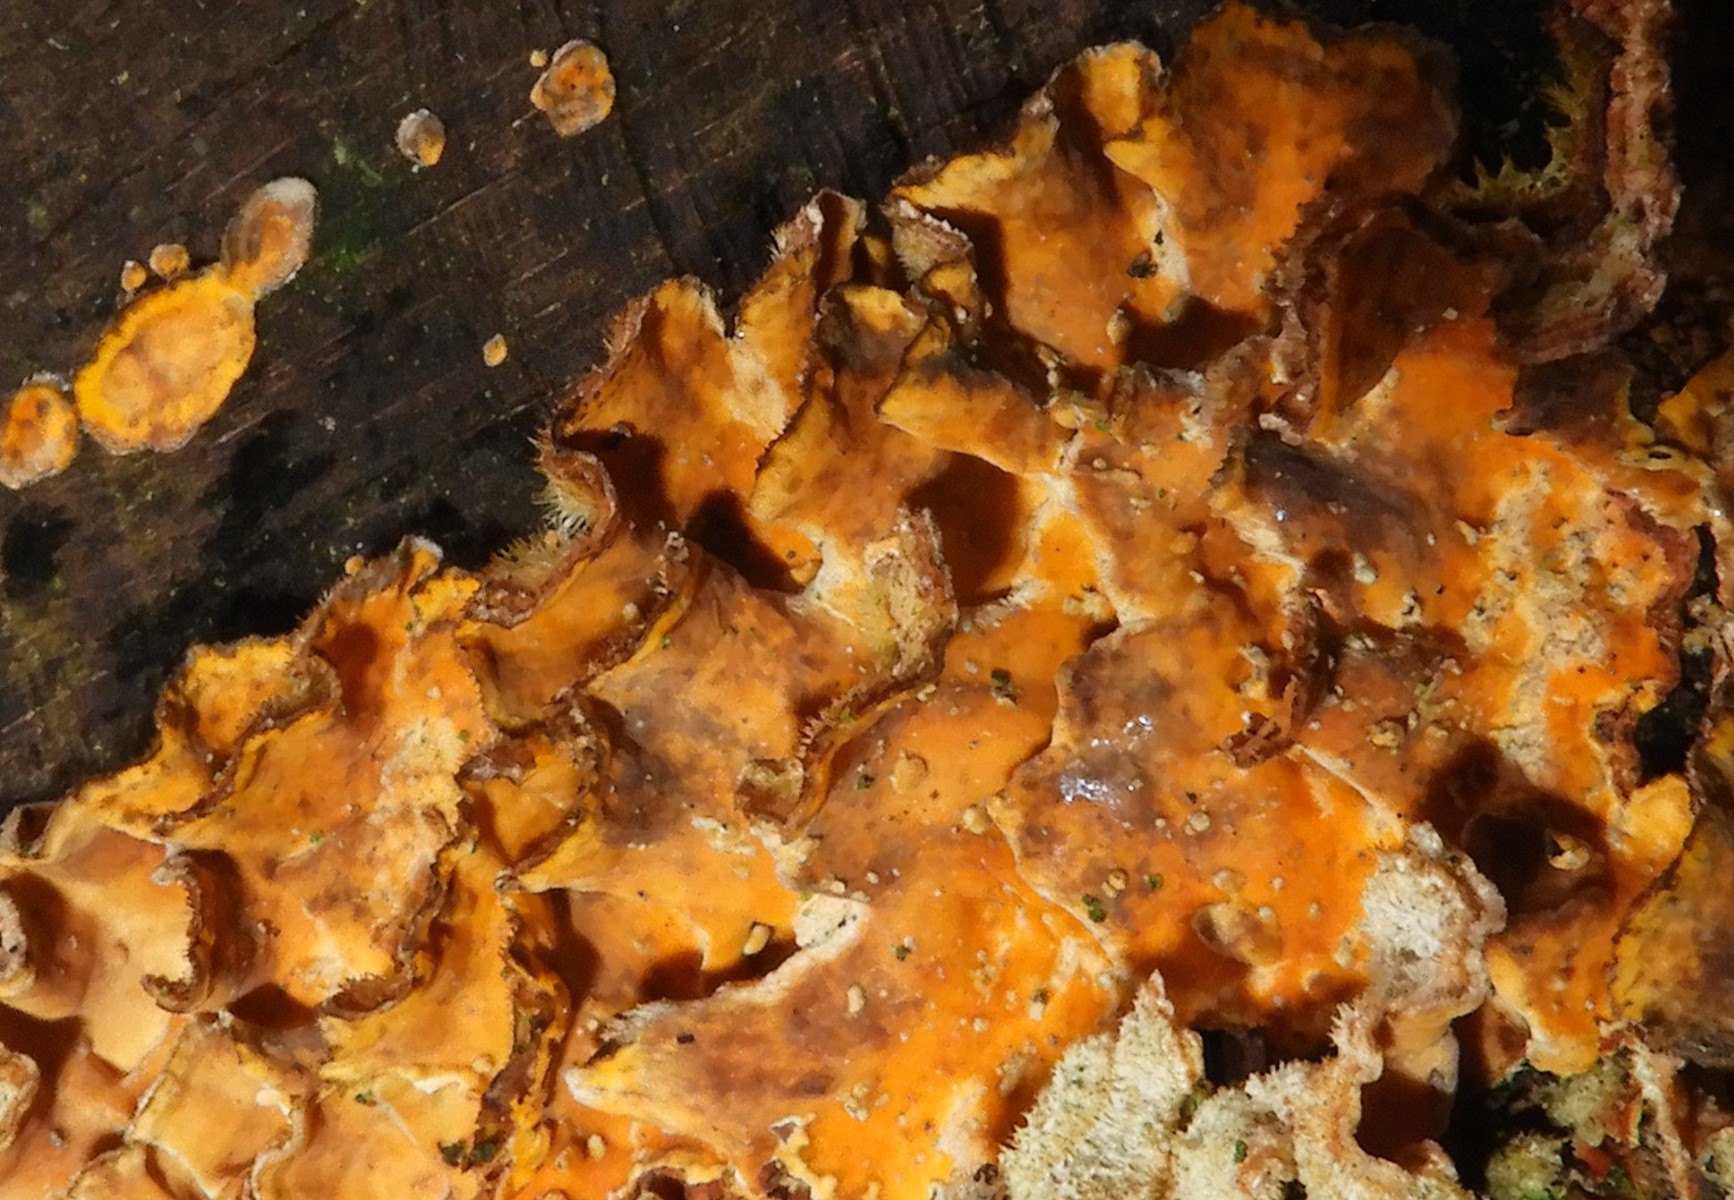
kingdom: Fungi
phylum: Basidiomycota
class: Agaricomycetes
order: Russulales
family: Stereaceae
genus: Stereum
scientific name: Stereum hirsutum
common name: håret lædersvamp
